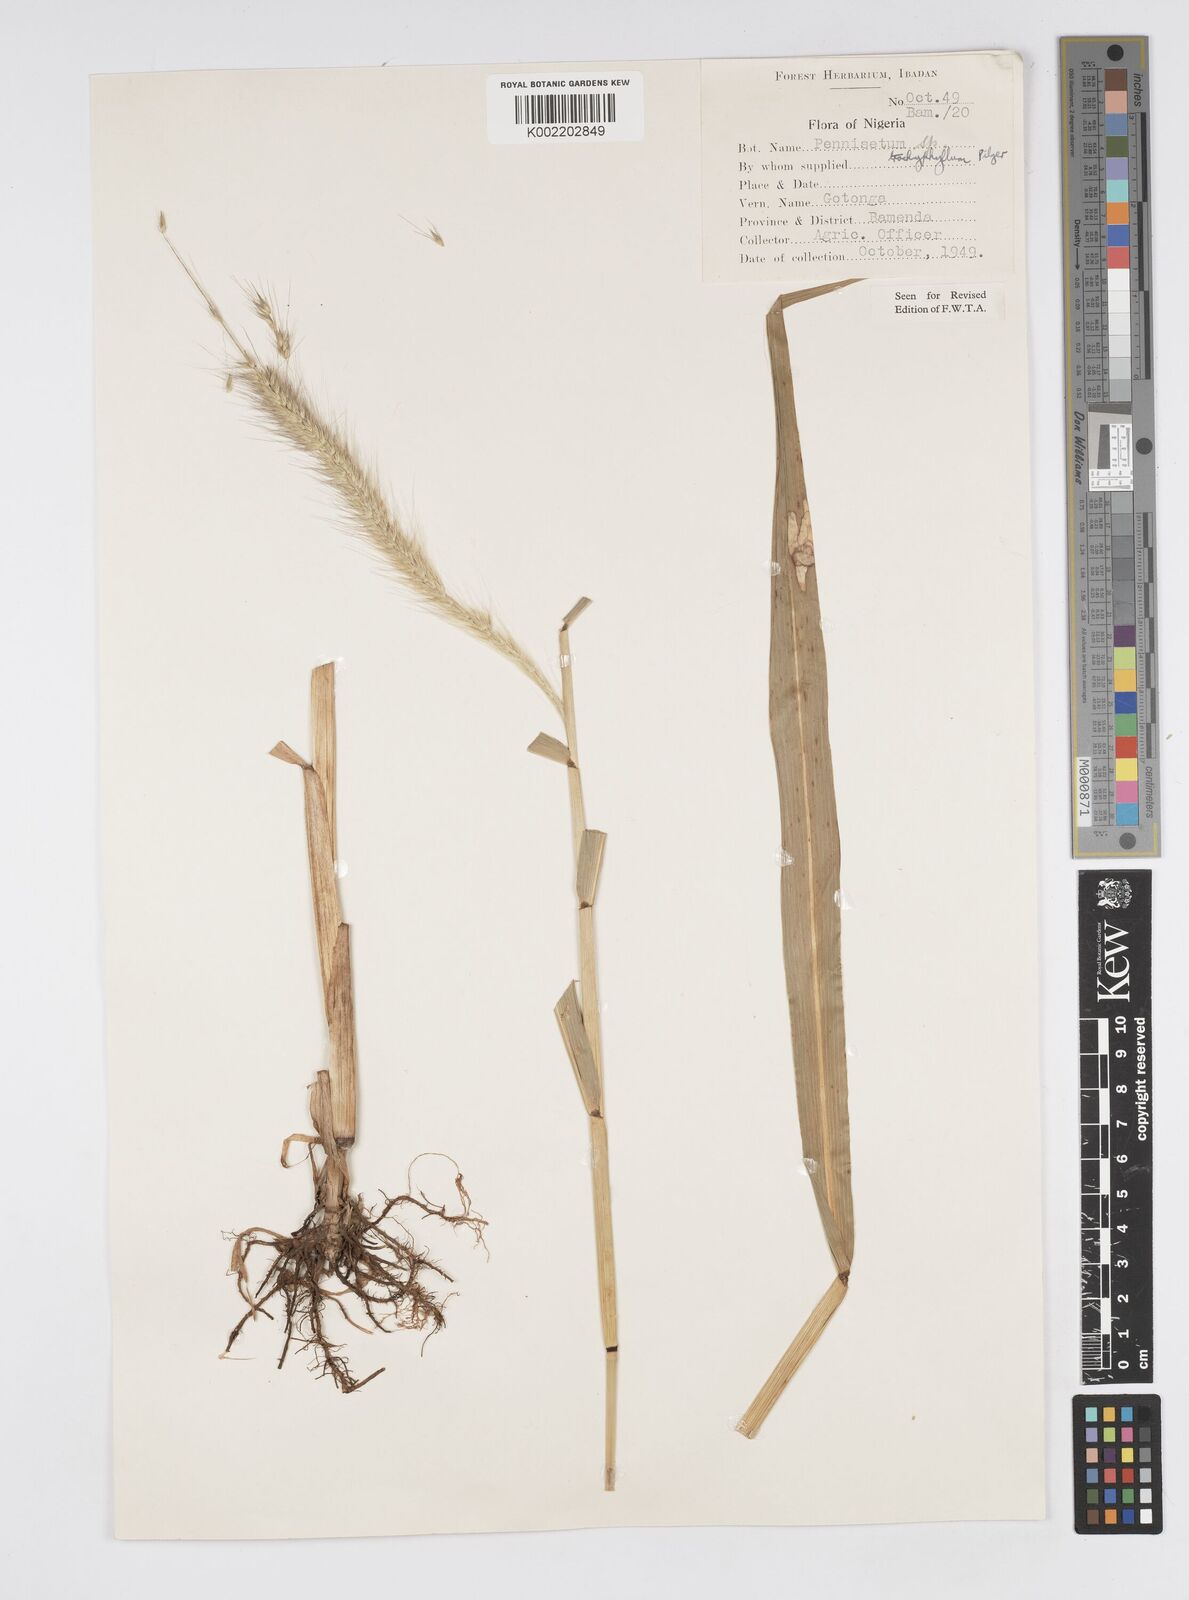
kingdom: Plantae
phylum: Tracheophyta
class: Liliopsida
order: Poales
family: Poaceae
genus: Cenchrus
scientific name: Cenchrus trachyphyllus
